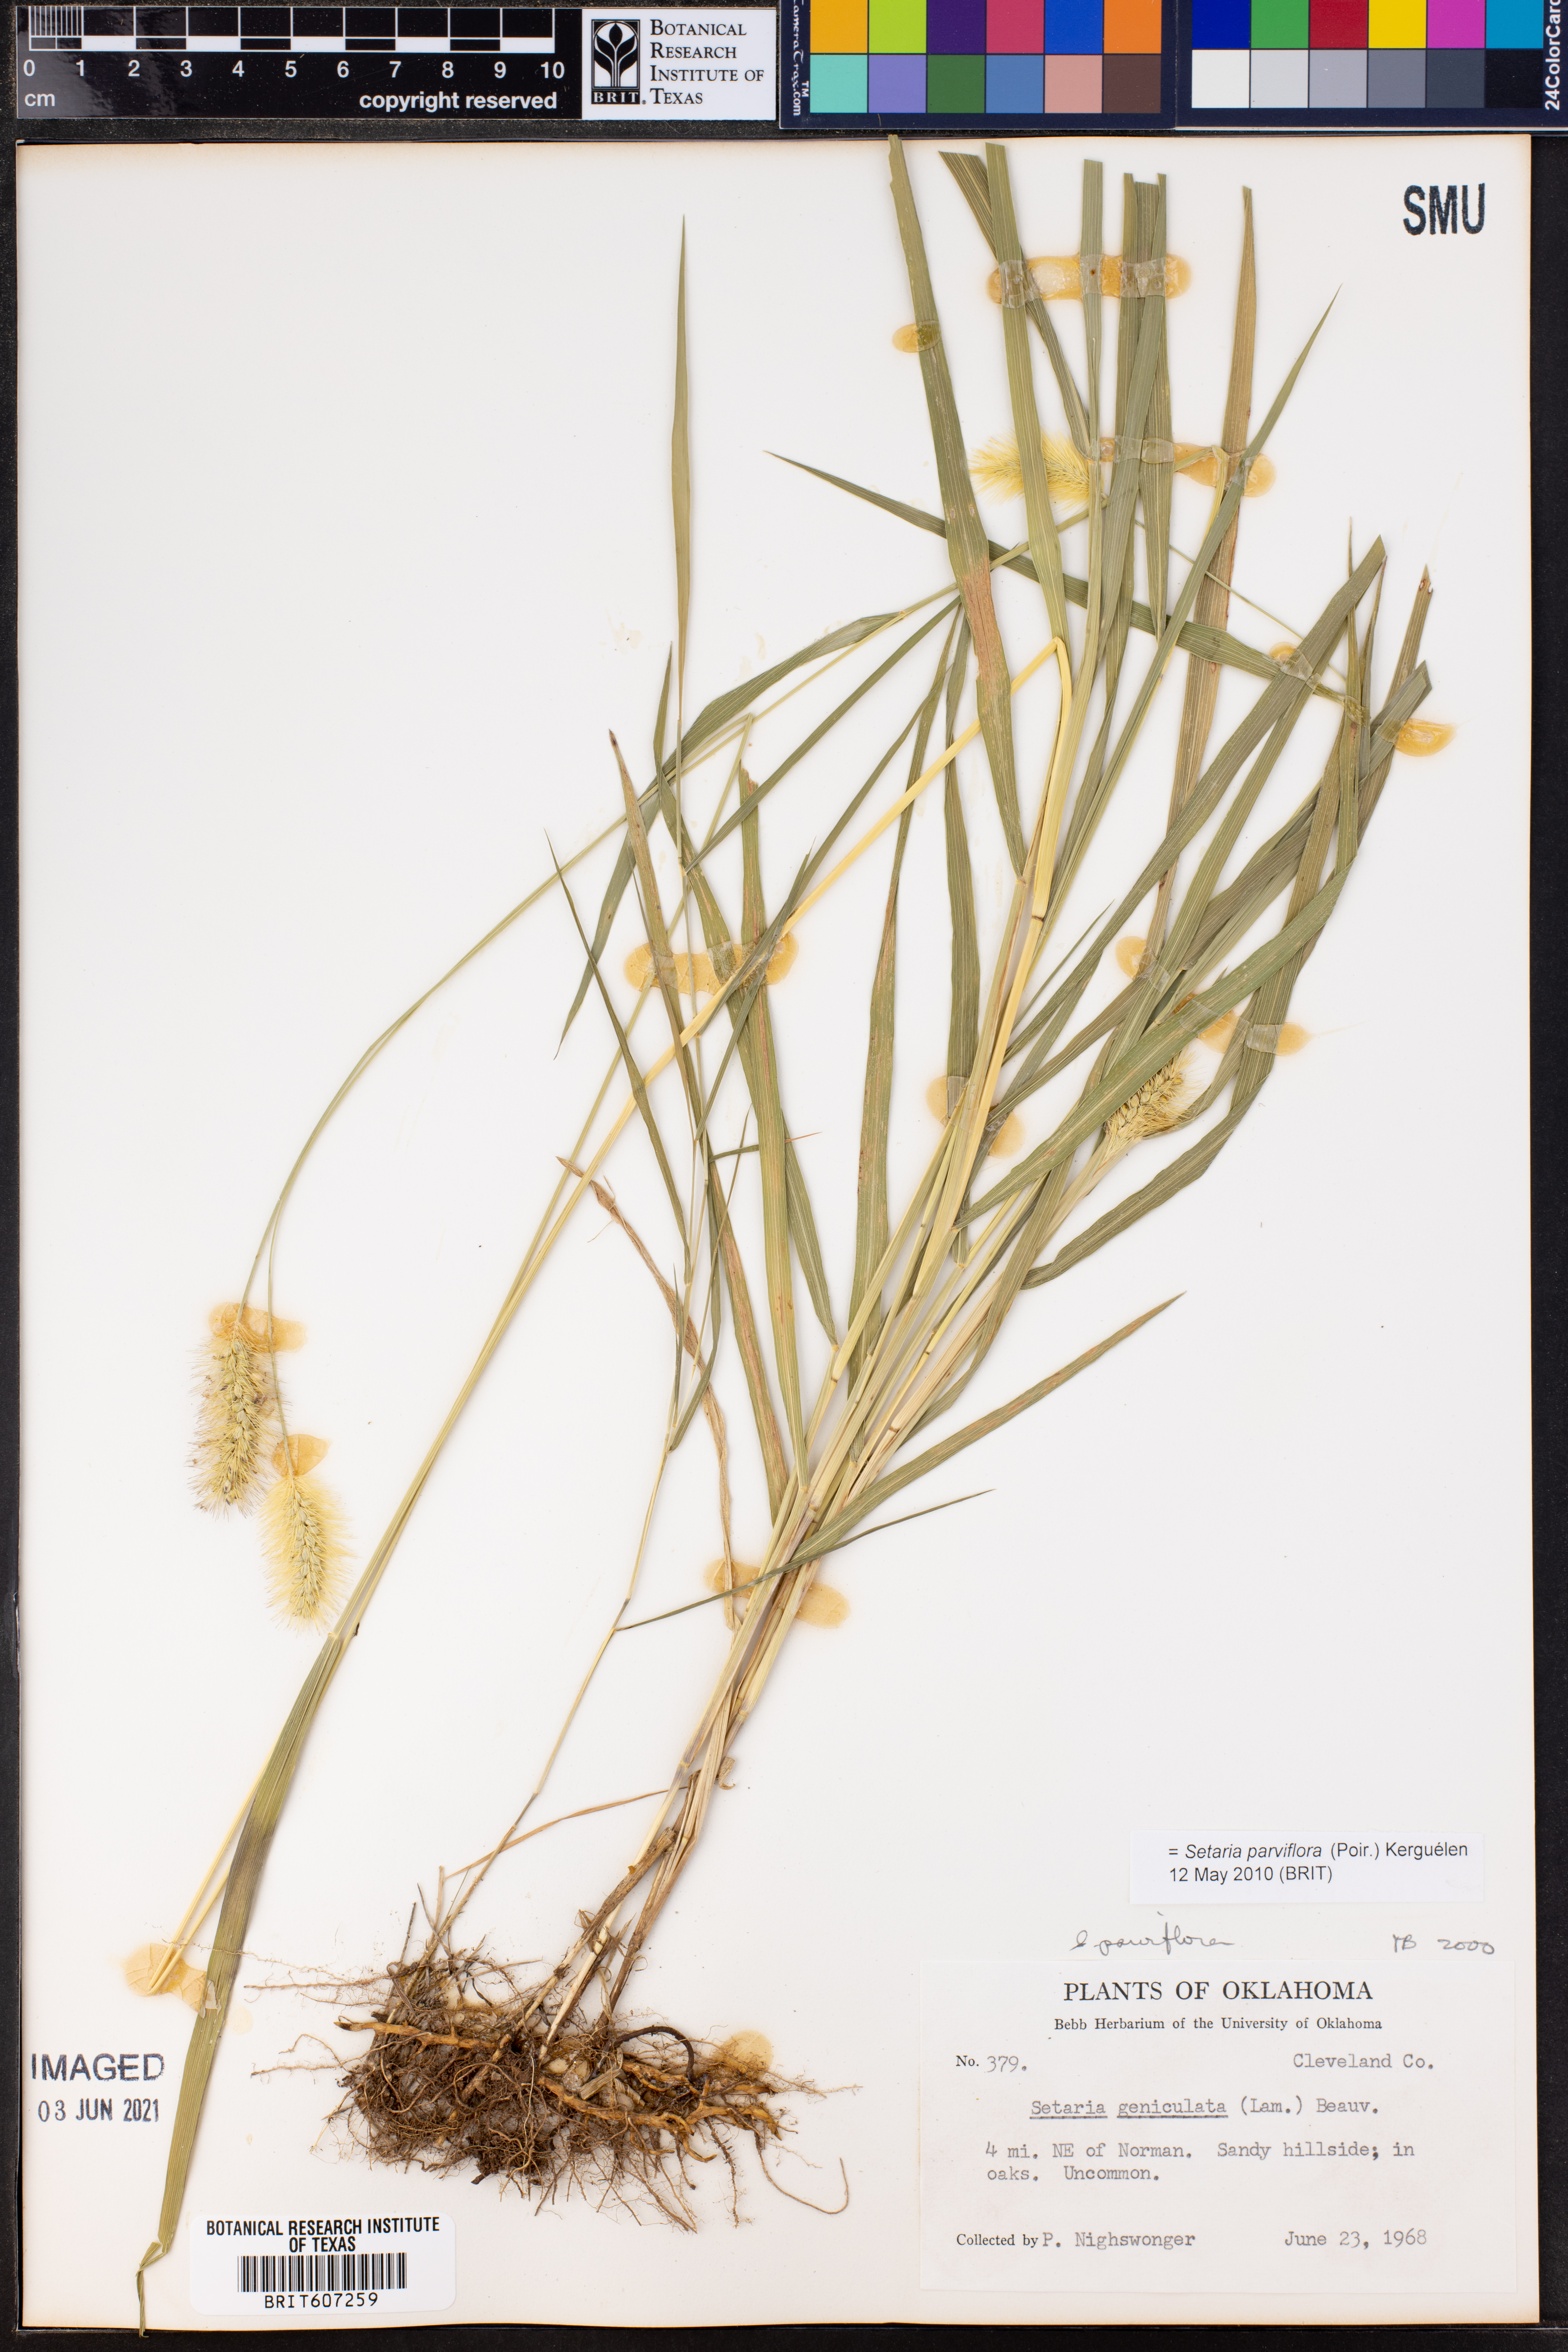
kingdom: Plantae
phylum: Tracheophyta
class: Liliopsida
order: Poales
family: Poaceae
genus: Setaria
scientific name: Setaria parviflora
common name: Knotroot bristle-grass
